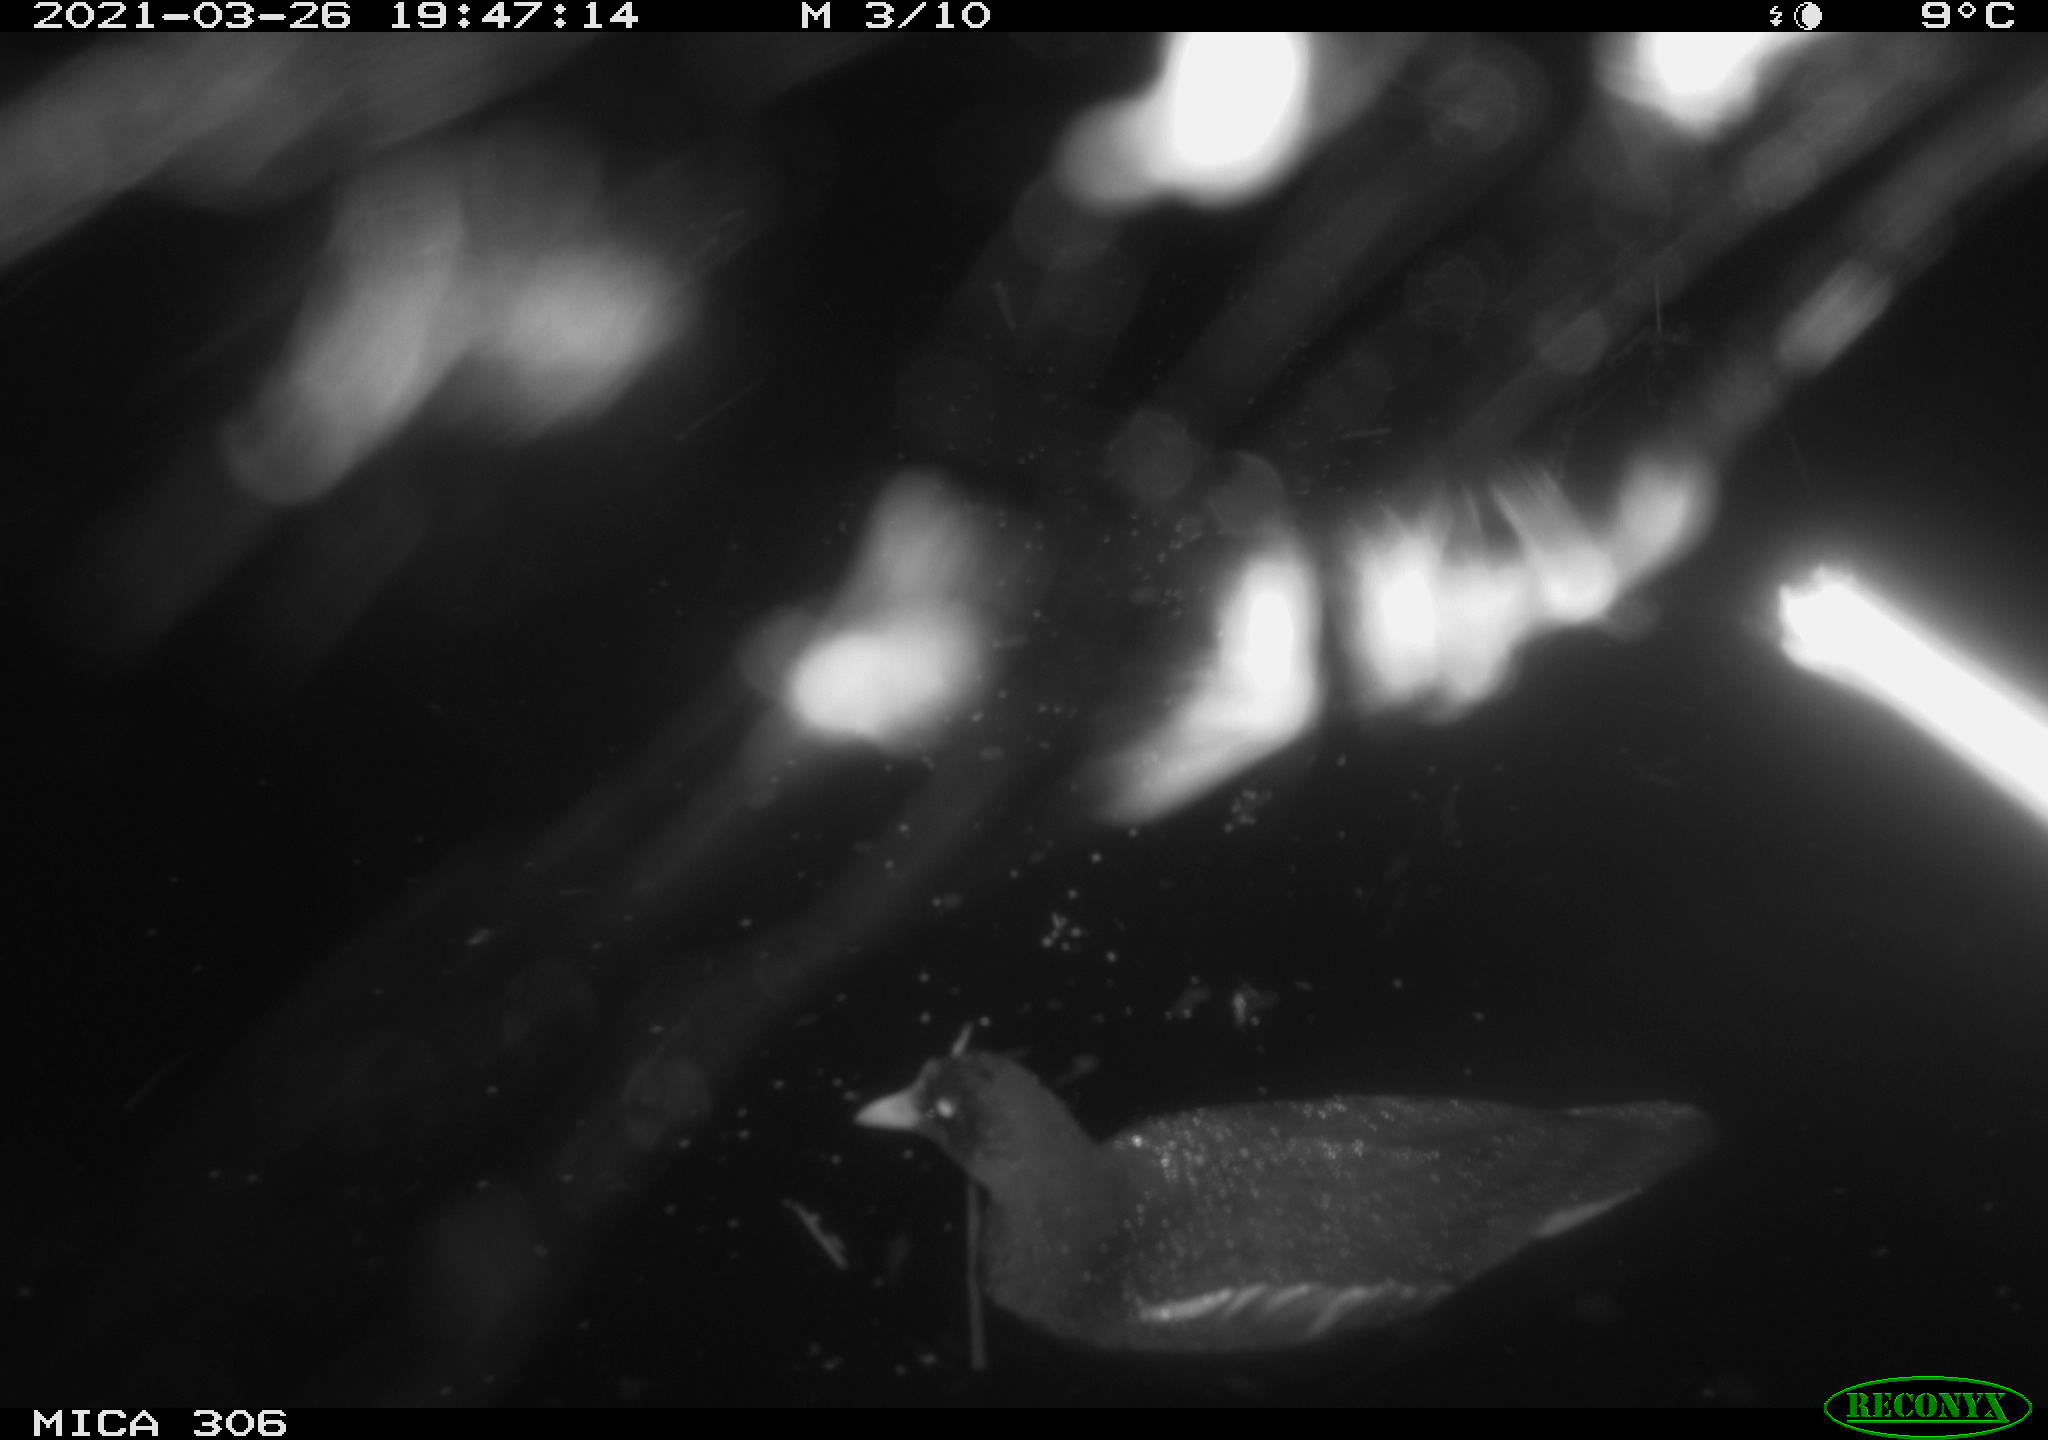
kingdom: Animalia
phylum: Chordata
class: Aves
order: Gruiformes
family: Rallidae
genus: Gallinula
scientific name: Gallinula chloropus
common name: Common moorhen
